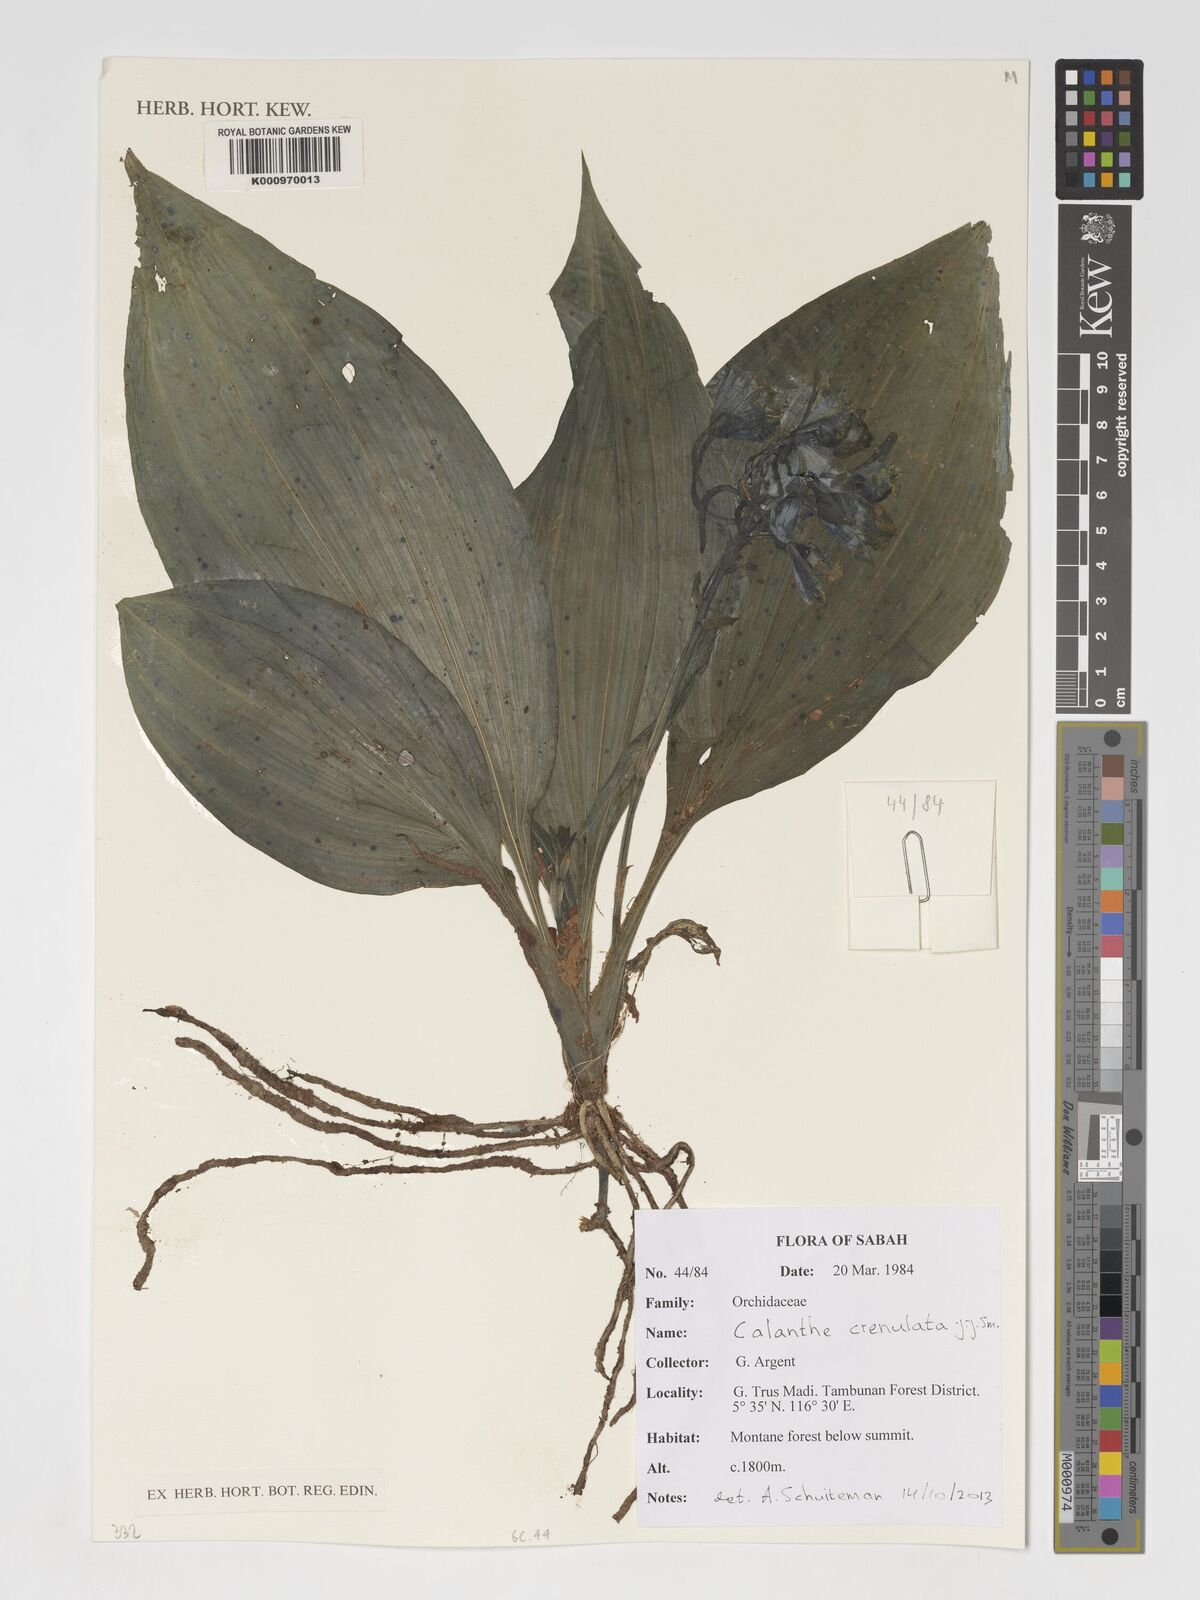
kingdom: Plantae
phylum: Tracheophyta
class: Liliopsida
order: Asparagales
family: Orchidaceae
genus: Calanthe
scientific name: Calanthe crenulata
